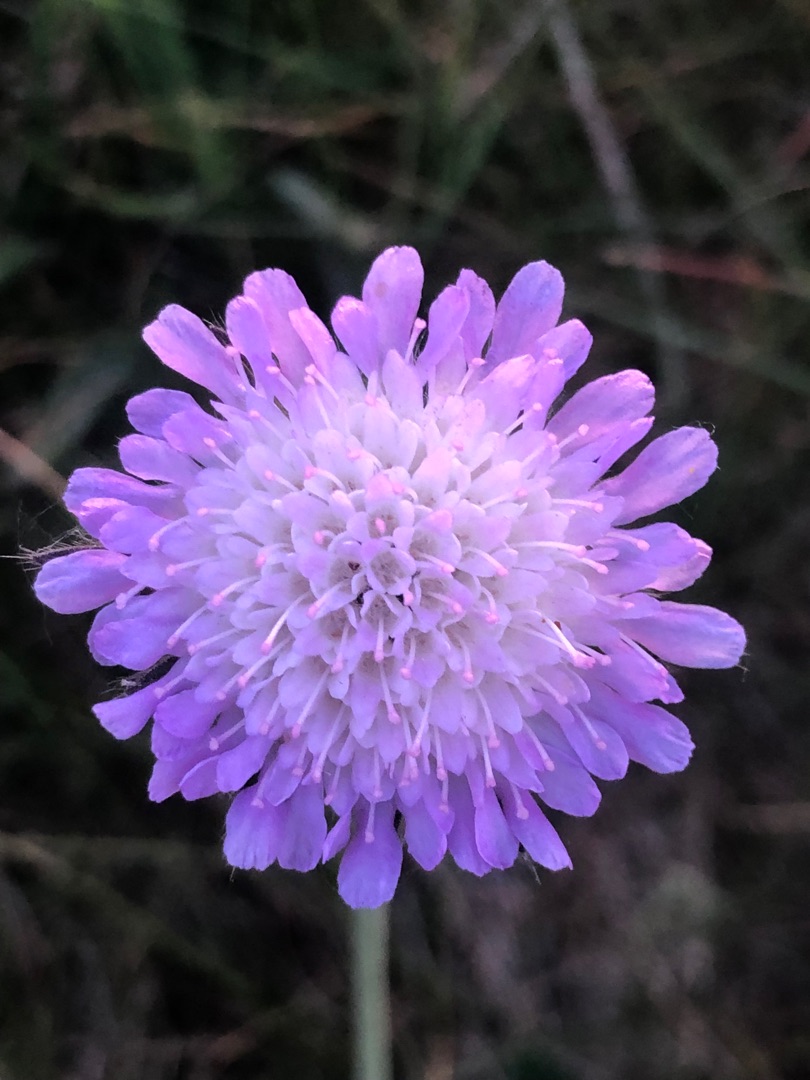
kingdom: Plantae
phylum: Tracheophyta
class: Magnoliopsida
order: Dipsacales
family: Caprifoliaceae
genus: Knautia
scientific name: Knautia arvensis
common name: Blåhat
